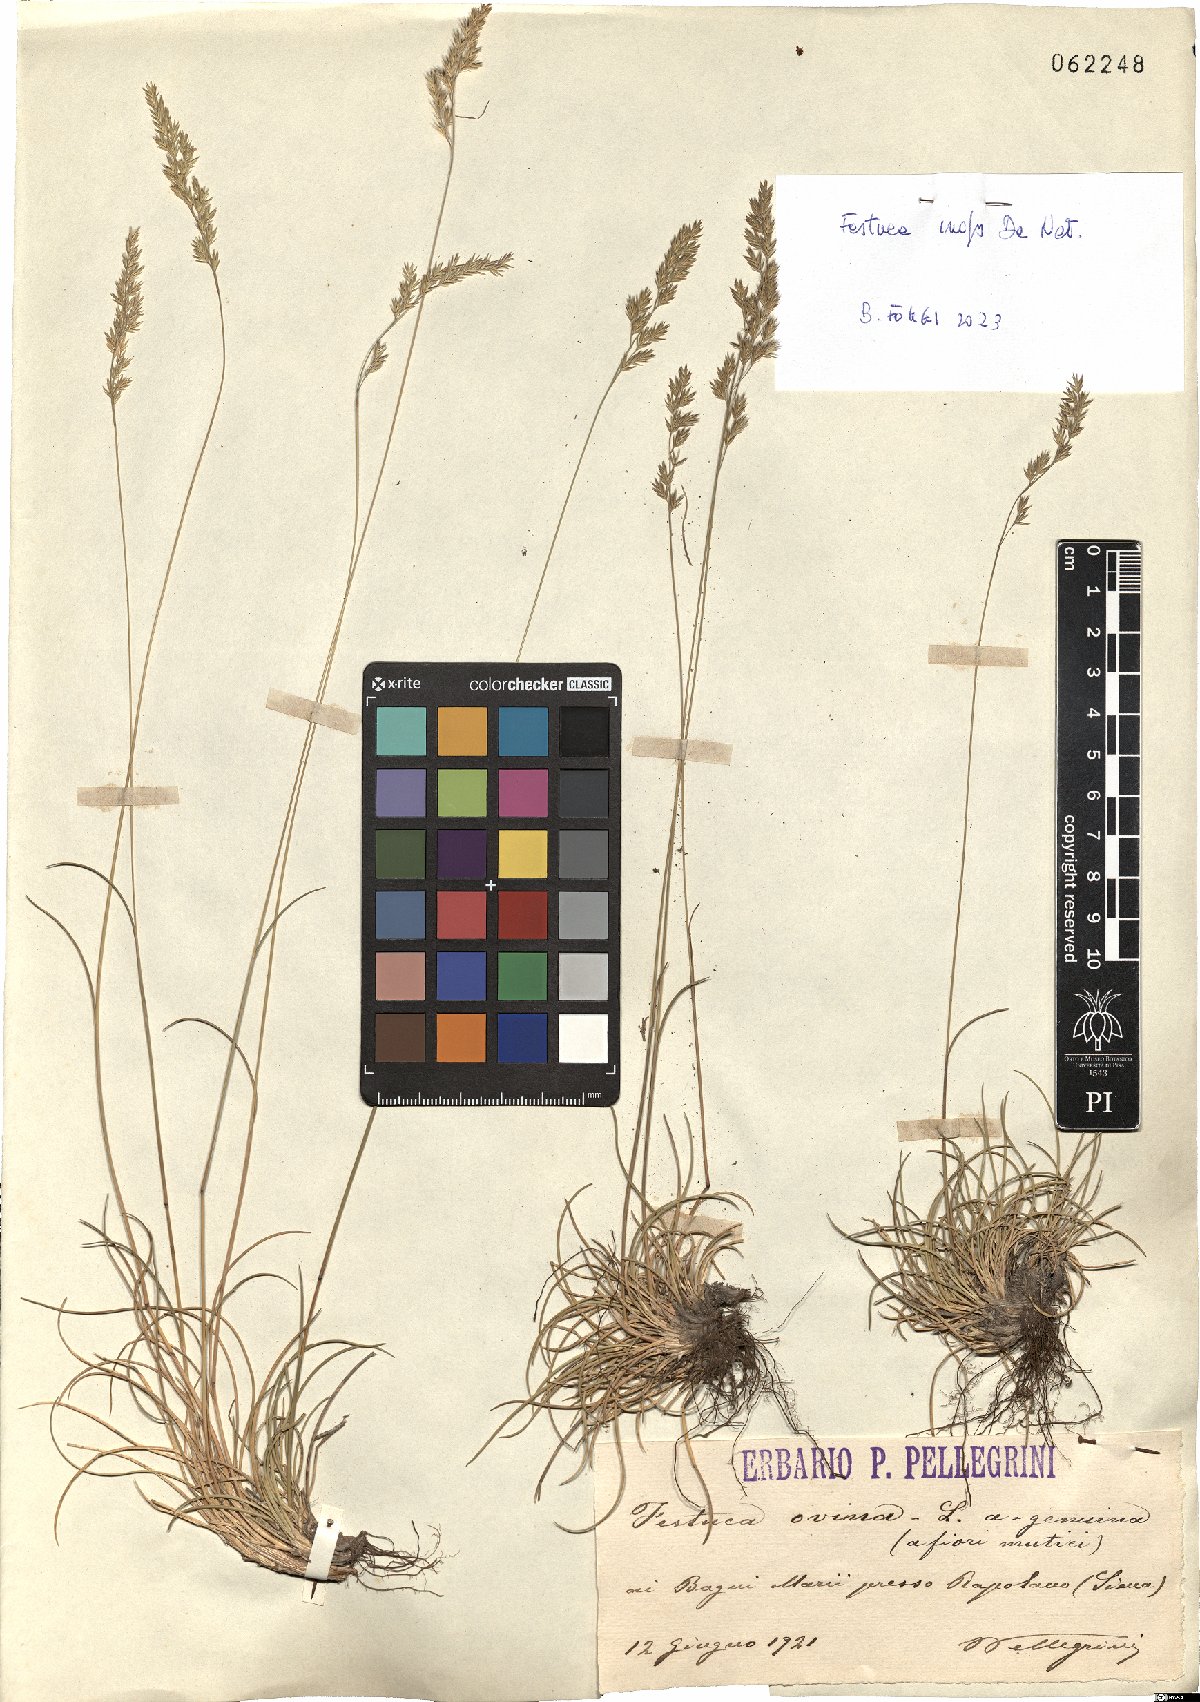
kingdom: Plantae
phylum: Tracheophyta
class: Liliopsida
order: Poales
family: Poaceae
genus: Festuca
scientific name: Festuca inops
